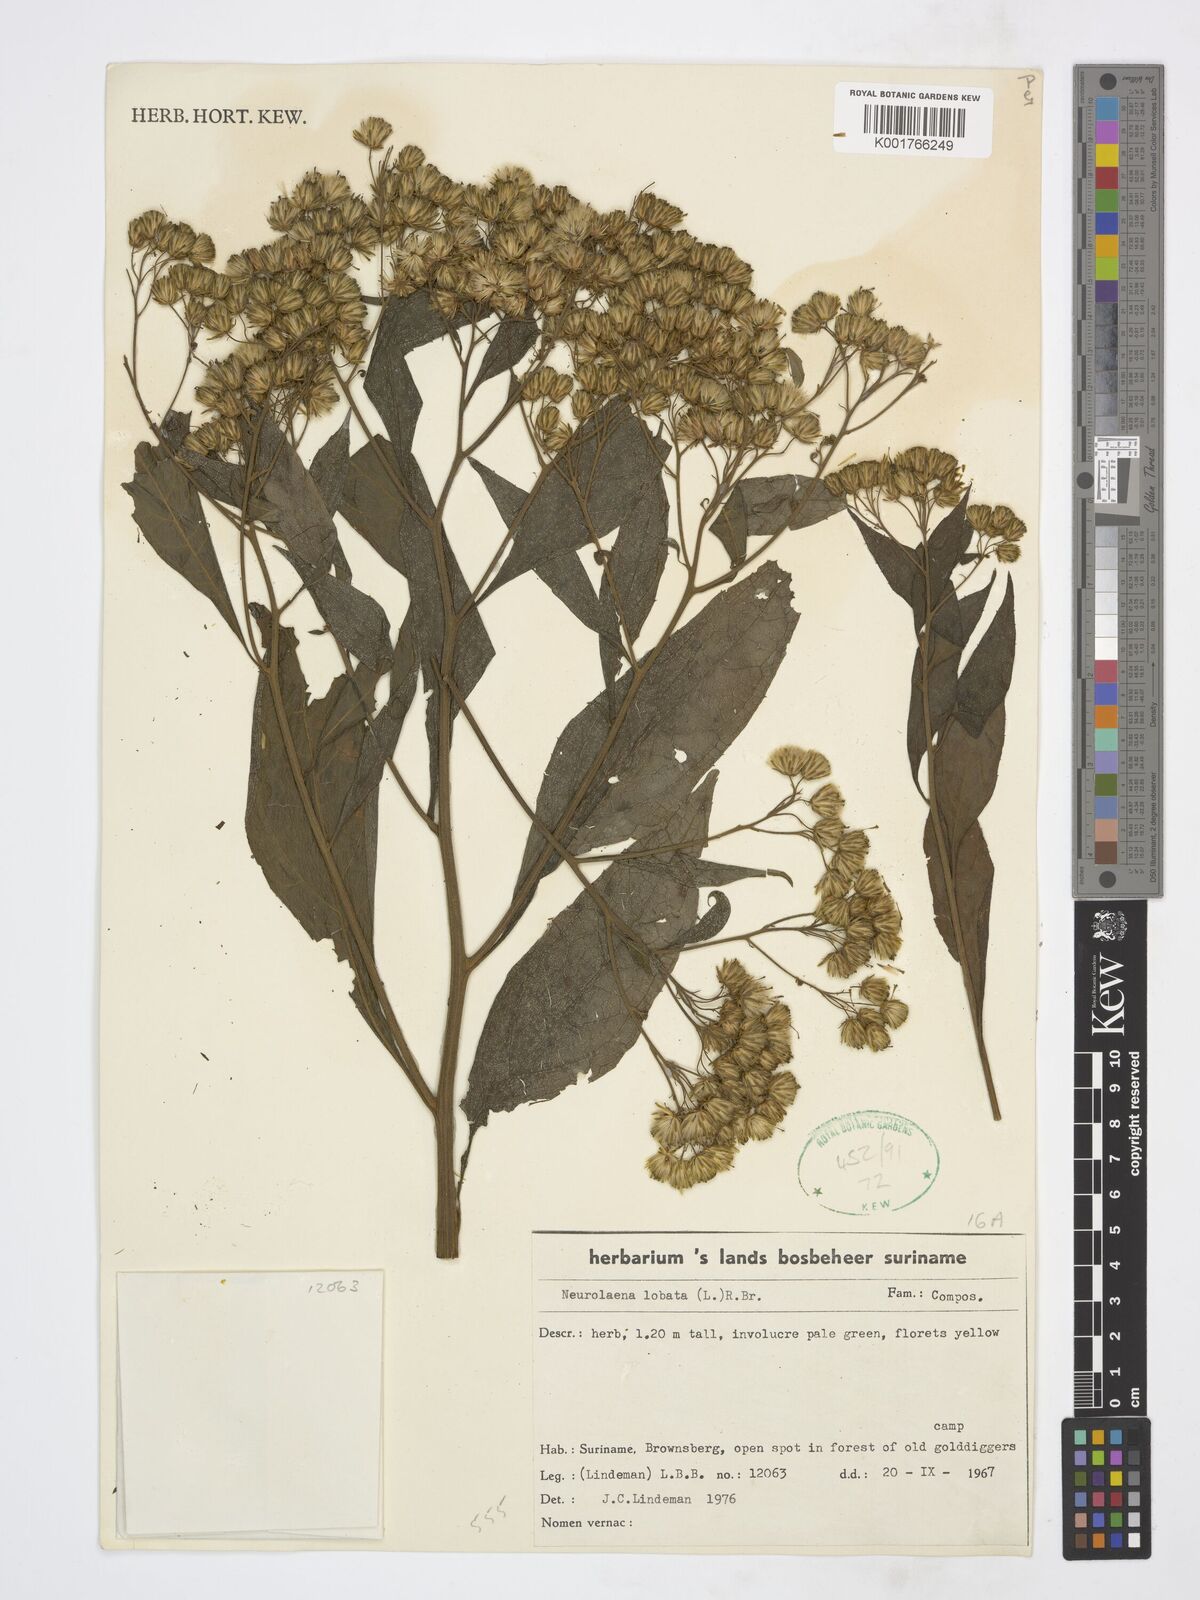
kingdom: Plantae
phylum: Tracheophyta
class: Magnoliopsida
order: Asterales
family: Asteraceae
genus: Neurolaena
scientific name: Neurolaena lobata
